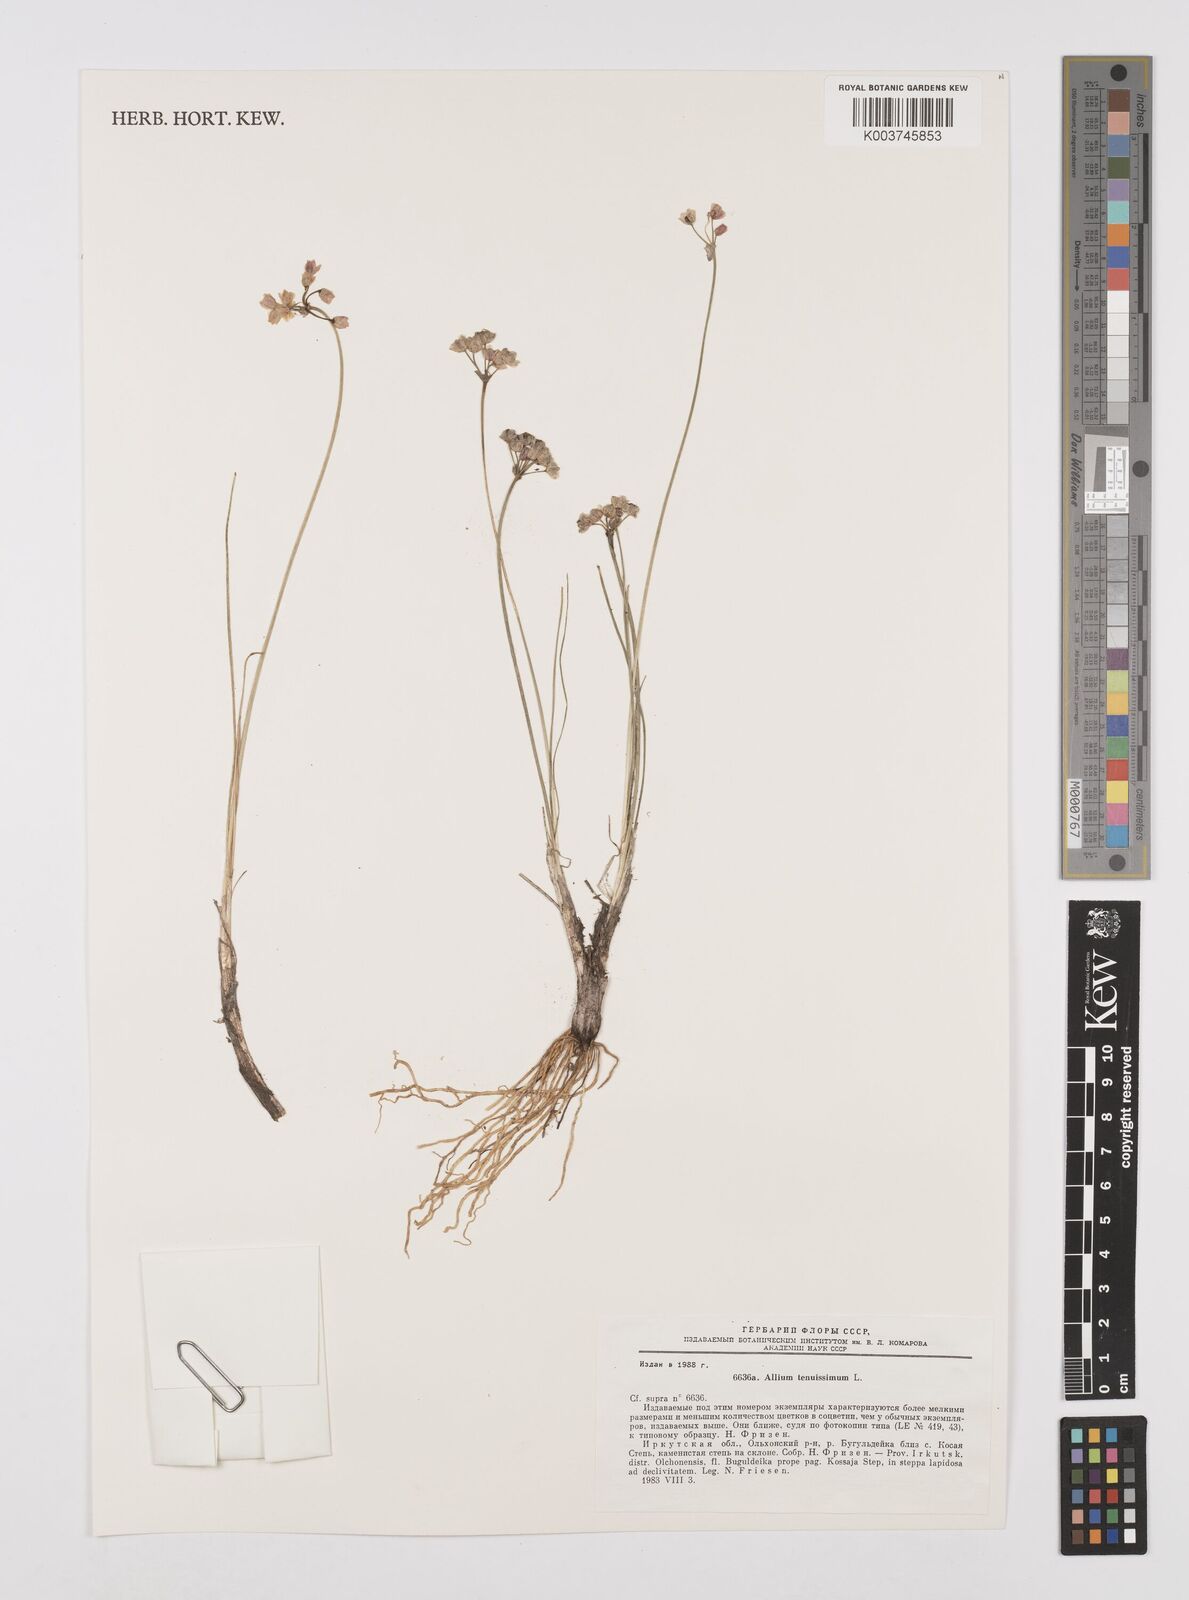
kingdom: Plantae
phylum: Tracheophyta
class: Liliopsida
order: Asparagales
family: Amaryllidaceae
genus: Allium
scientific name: Allium tenuissimum
